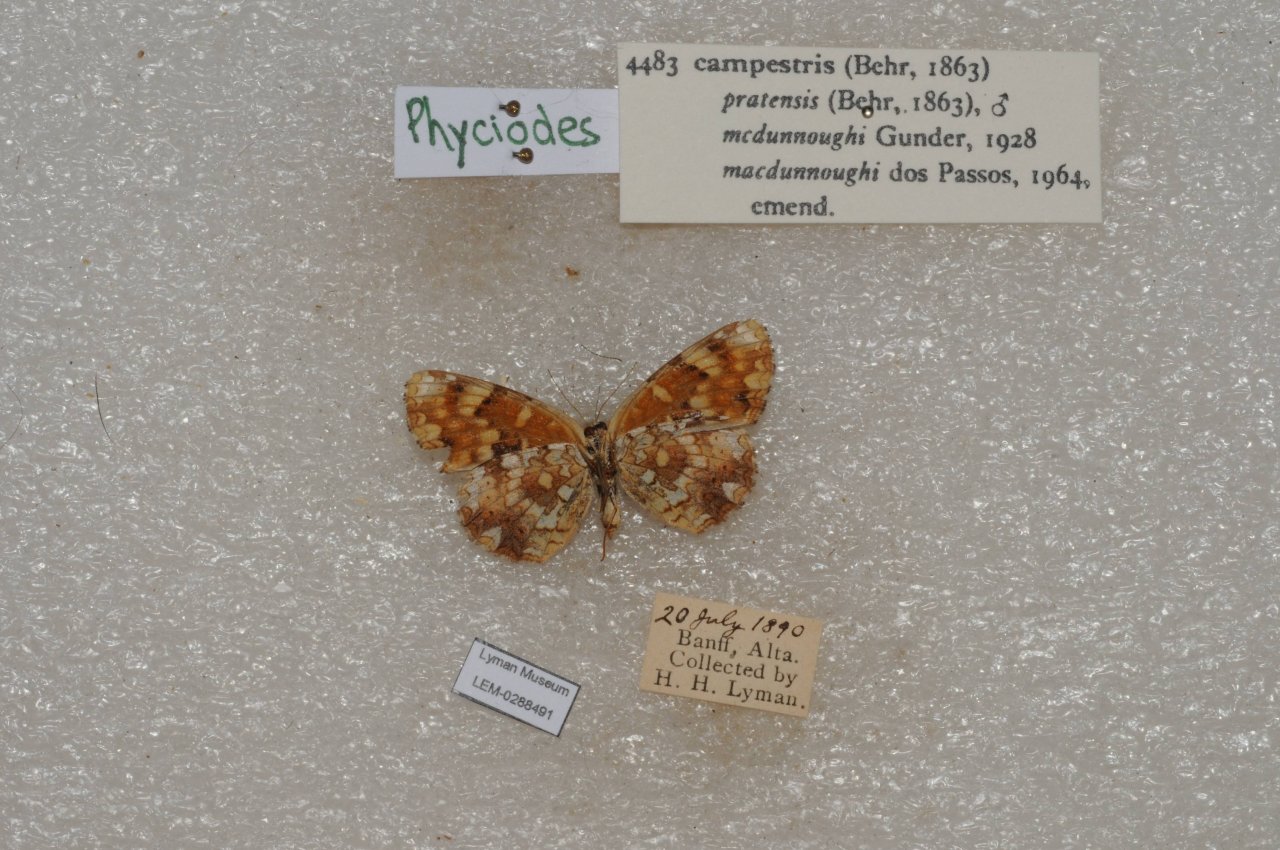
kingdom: Animalia
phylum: Arthropoda
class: Insecta
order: Lepidoptera
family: Nymphalidae
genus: Phyciodes
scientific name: Phyciodes tharos
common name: Field Crescent
